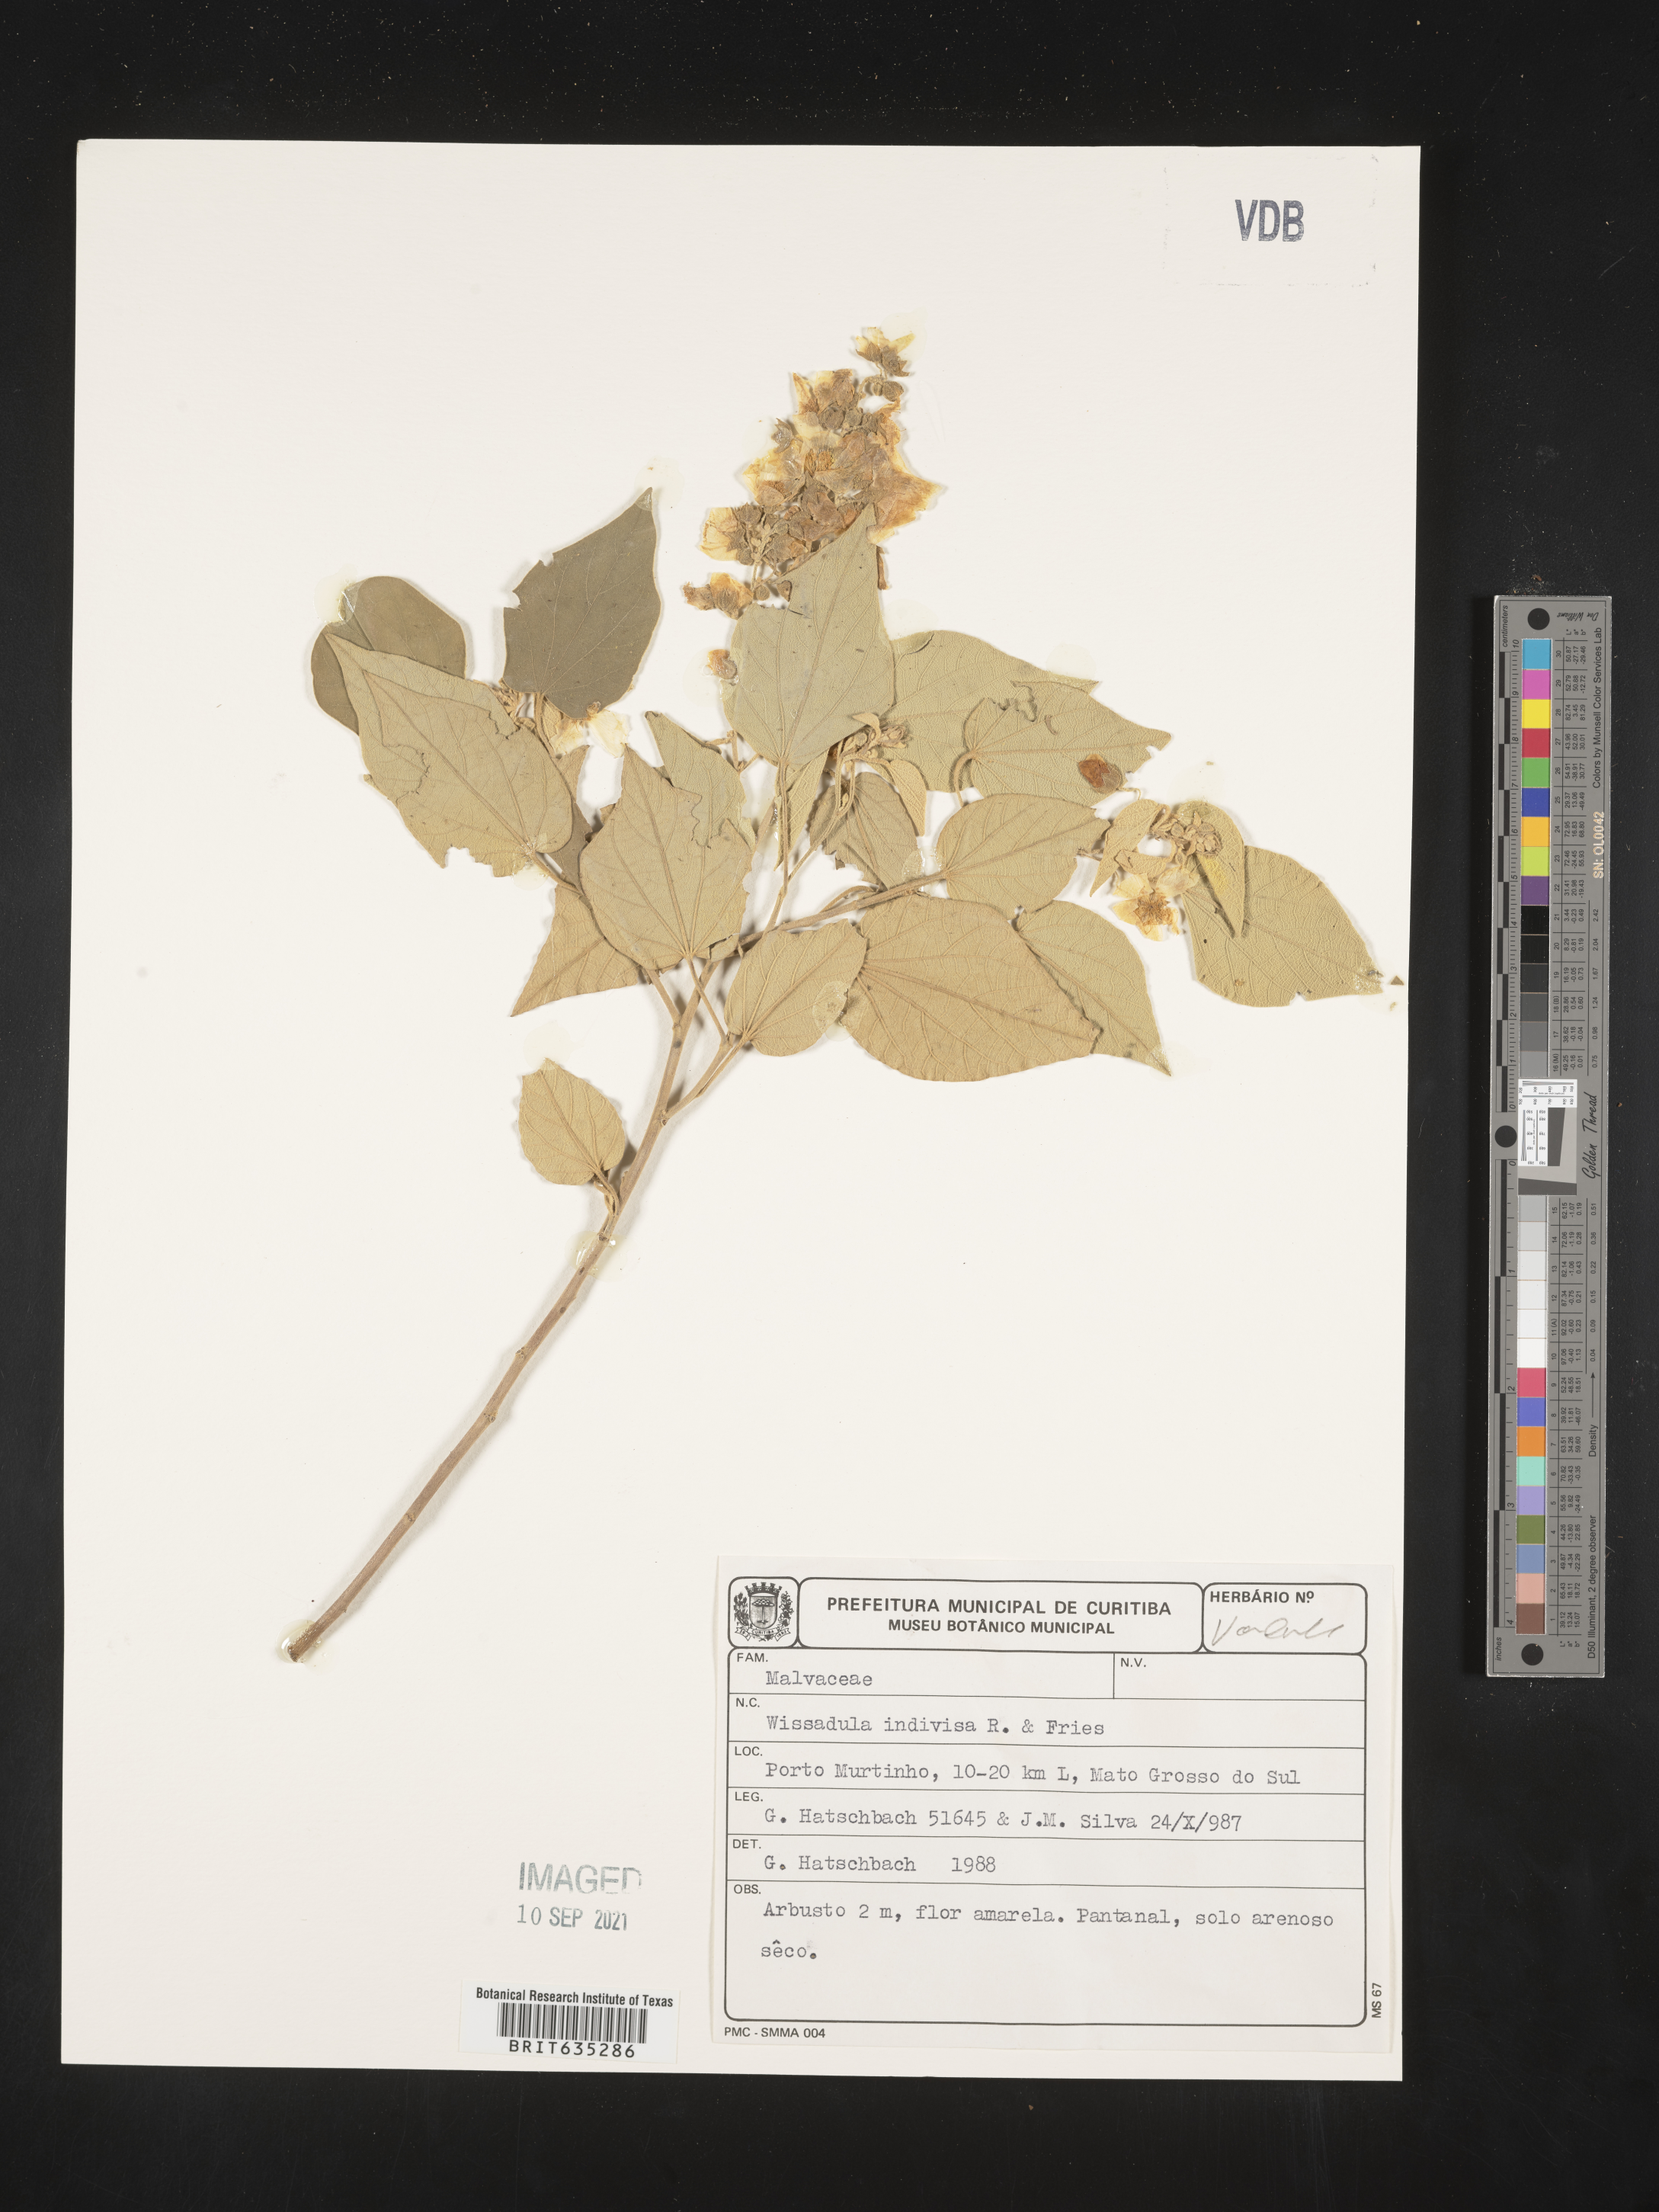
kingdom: Plantae
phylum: Tracheophyta
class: Magnoliopsida
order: Malvales
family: Malvaceae
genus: Wissadula
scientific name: Wissadula
